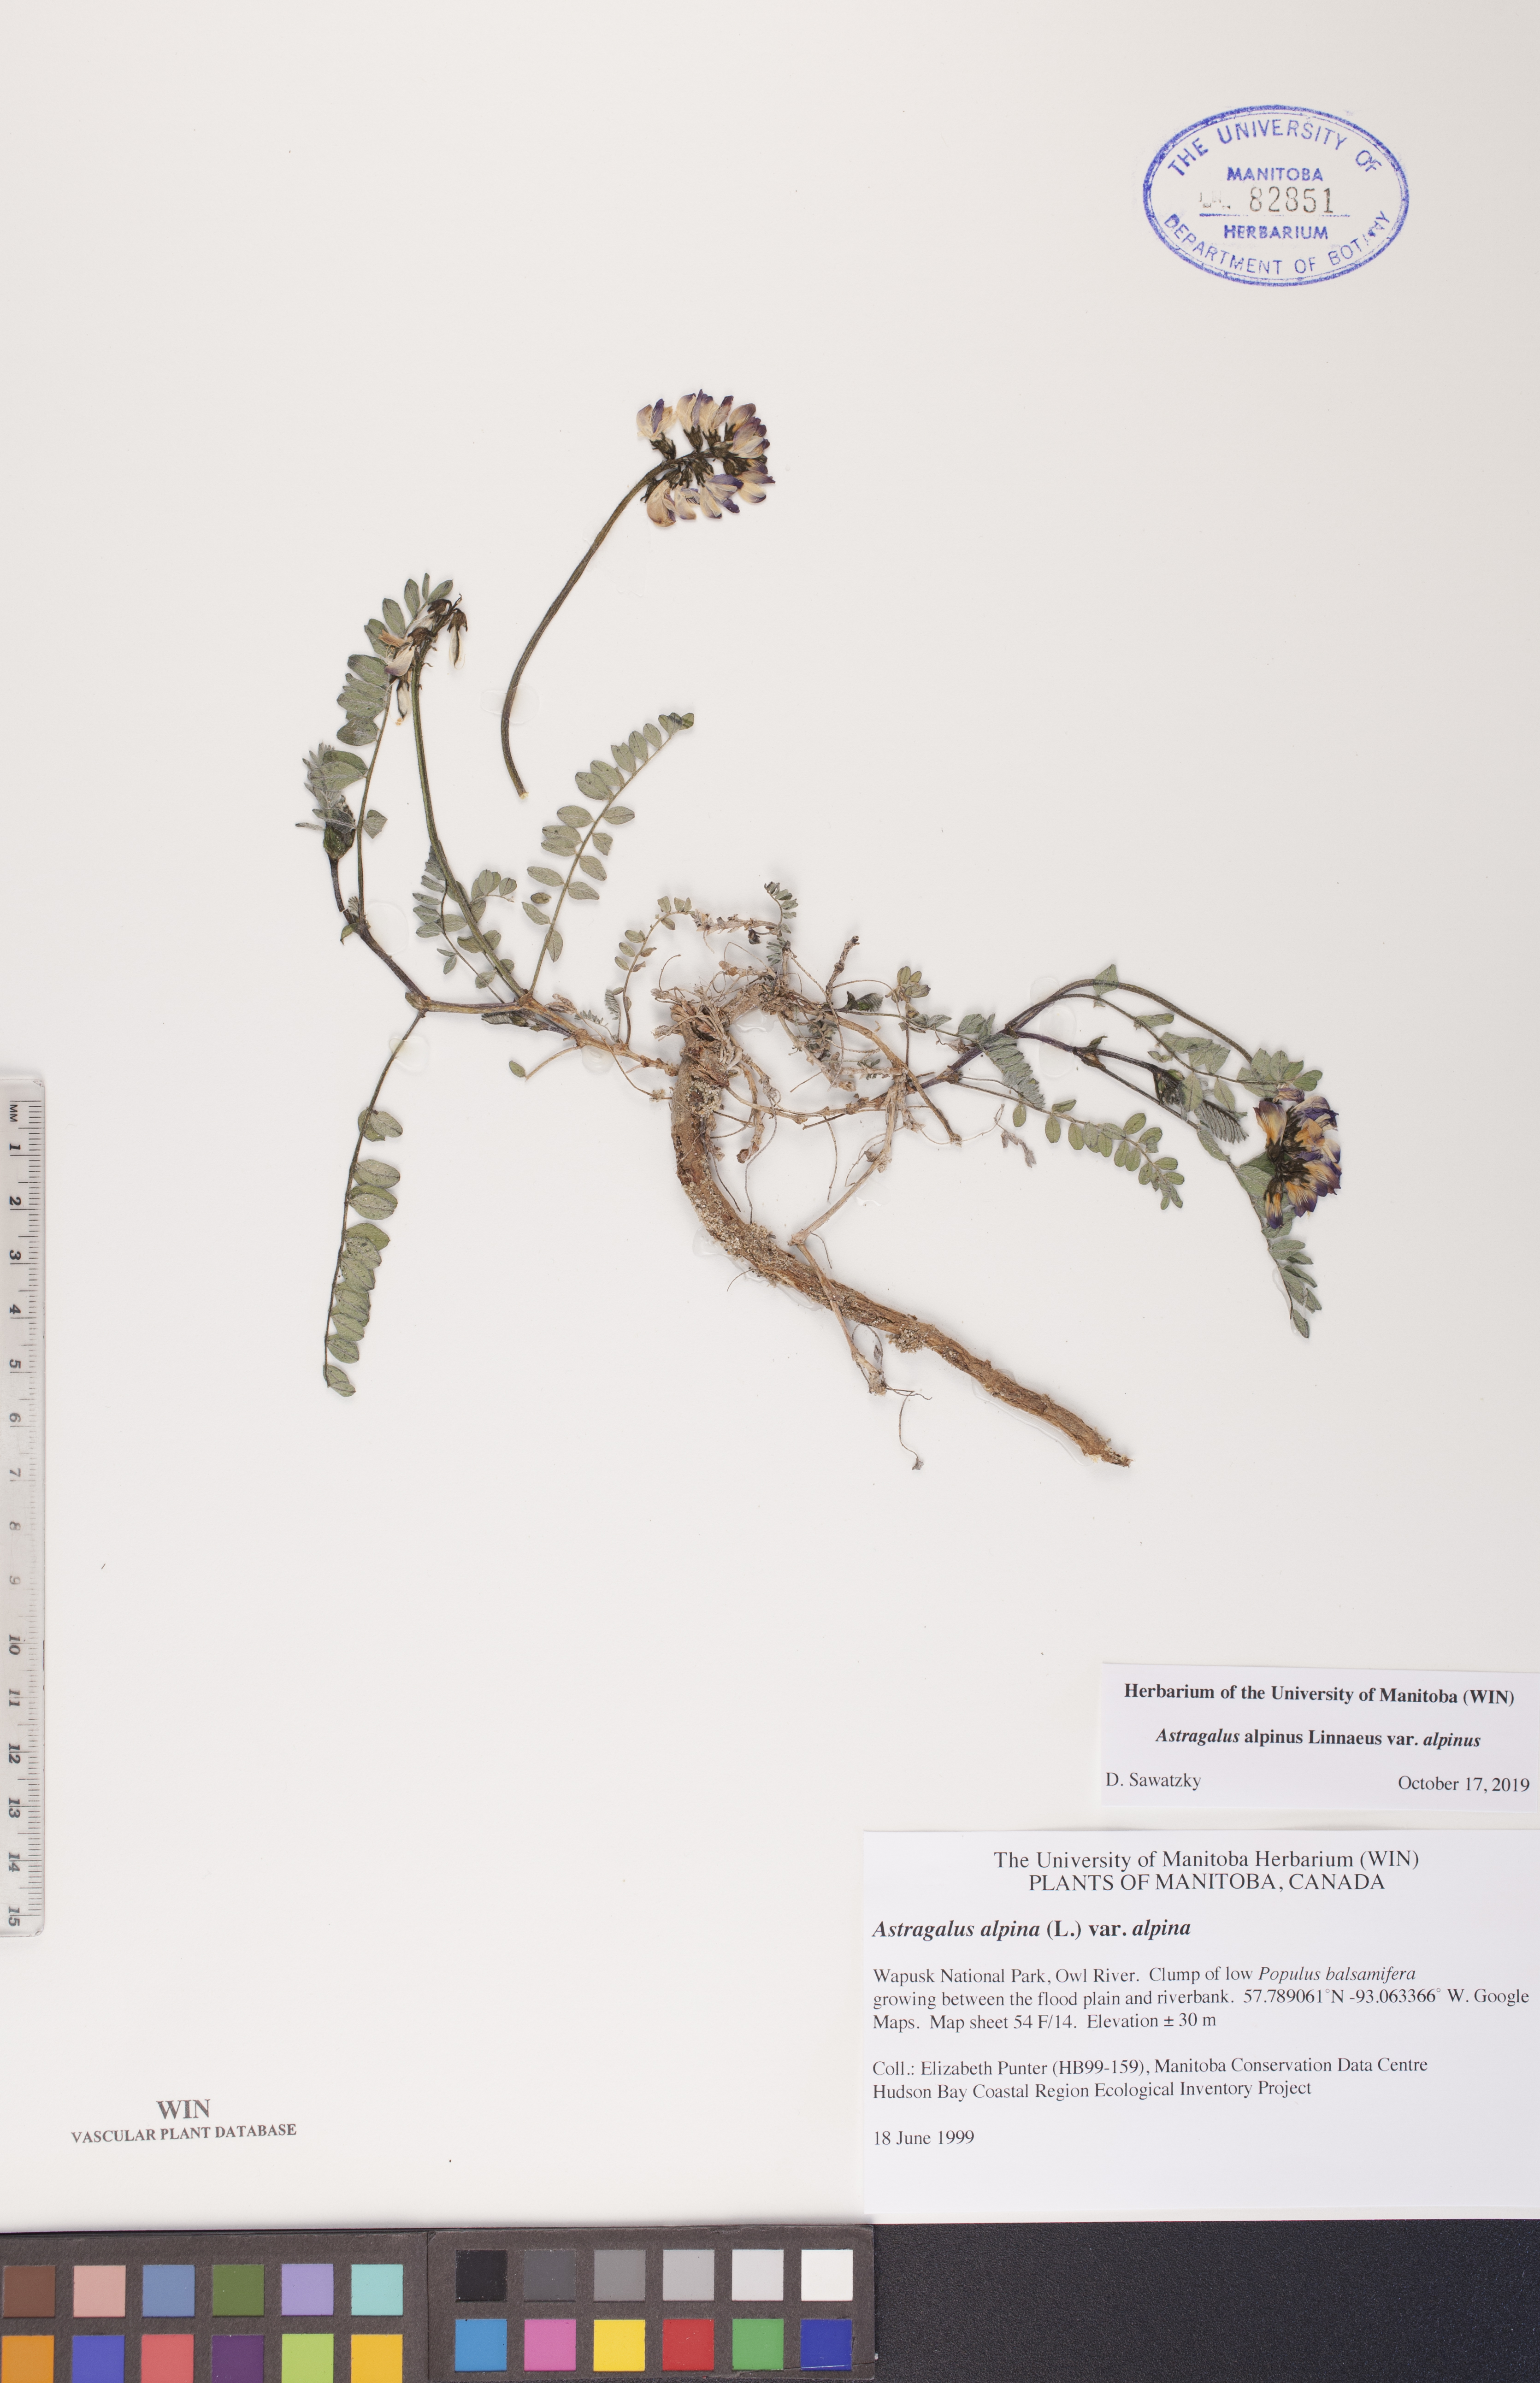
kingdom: Plantae
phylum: Tracheophyta
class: Magnoliopsida
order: Fabales
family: Fabaceae
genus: Astragalus
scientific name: Astragalus alpinus
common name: Alpine milk-vetch
